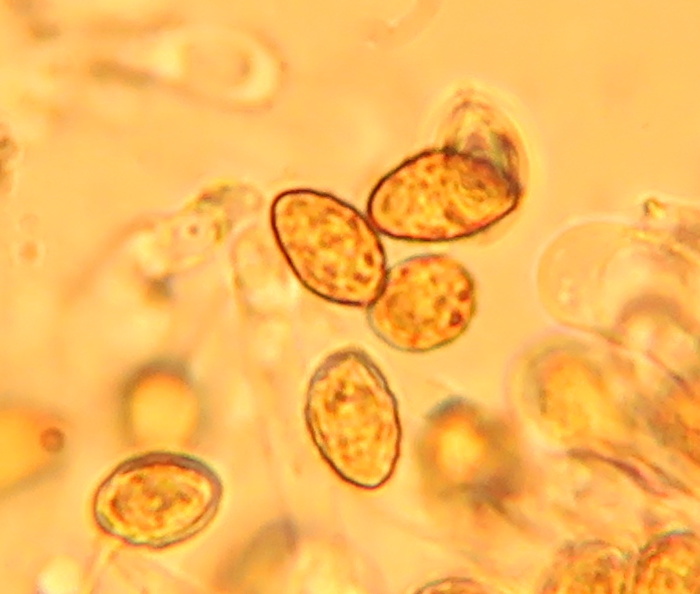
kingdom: Fungi
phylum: Basidiomycota
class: Agaricomycetes
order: Agaricales
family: Cortinariaceae
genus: Calonarius
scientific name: Calonarius callochrous
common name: lillabladet slørhat
